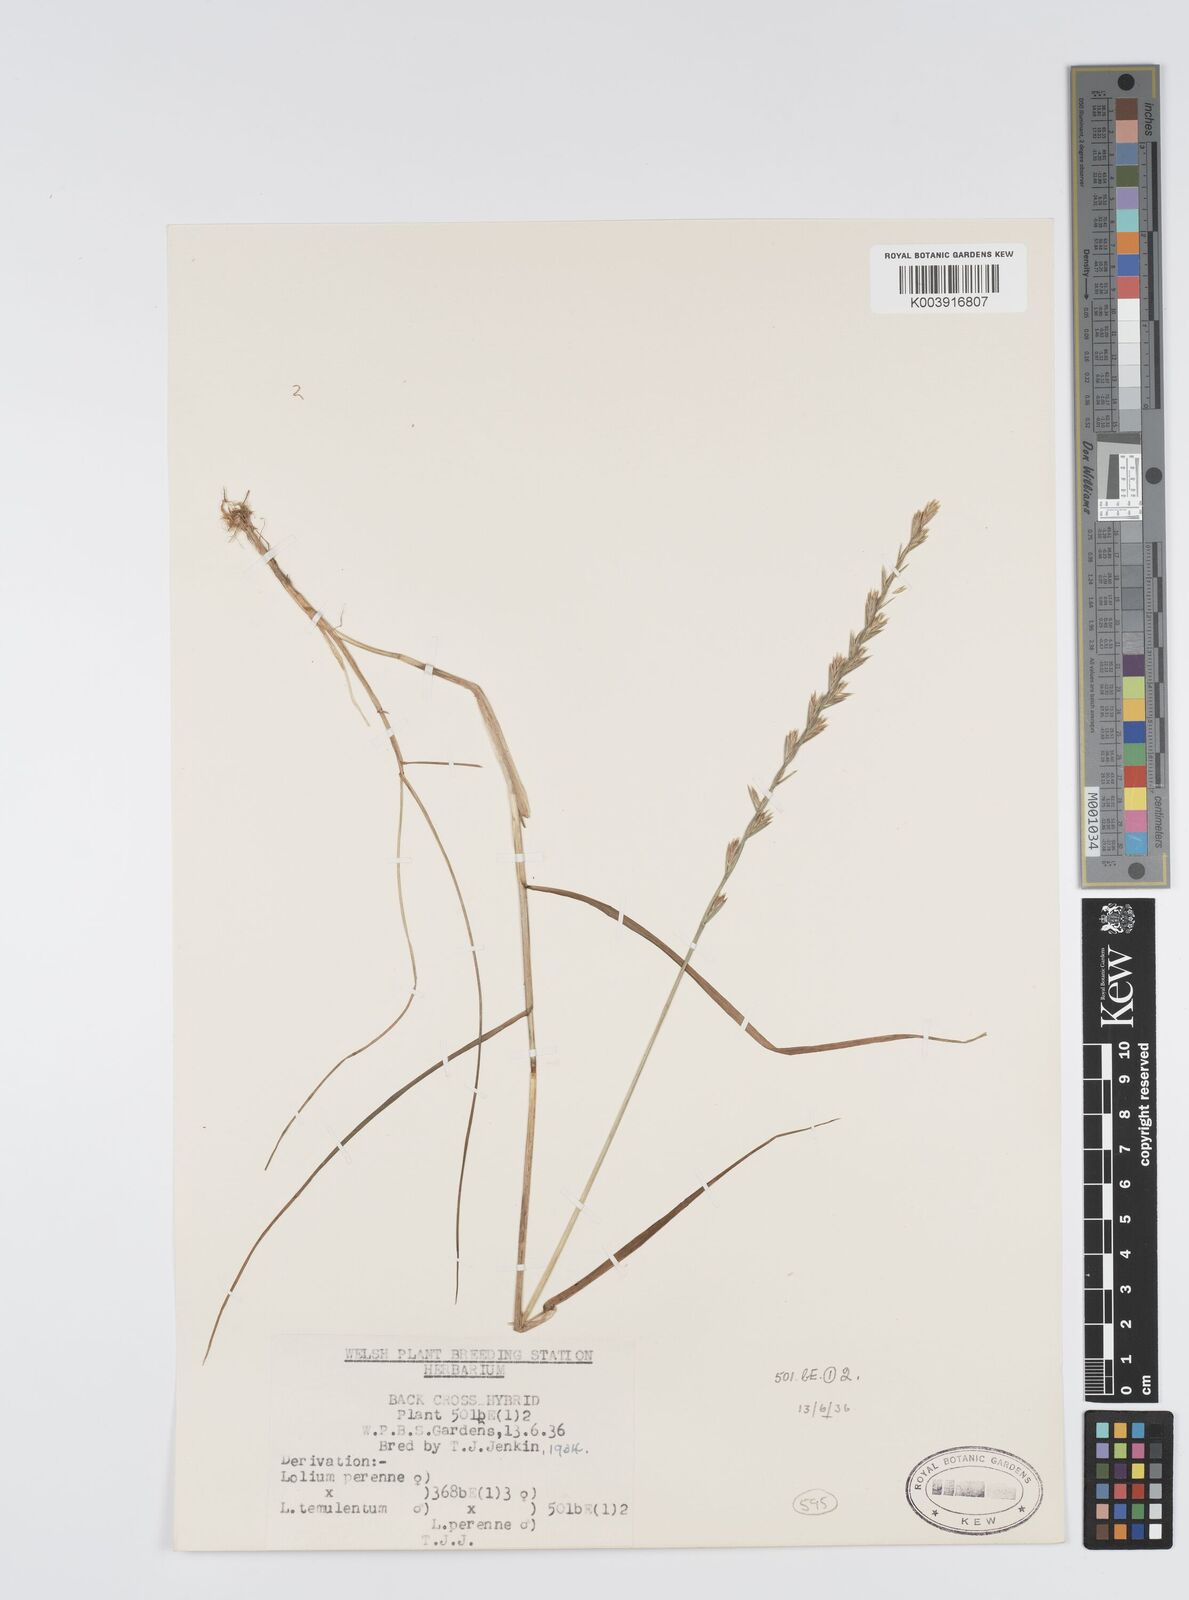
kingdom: Plantae
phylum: Tracheophyta
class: Liliopsida
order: Poales
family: Poaceae
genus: Lolium
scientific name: Lolium perenne
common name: Perennial ryegrass
